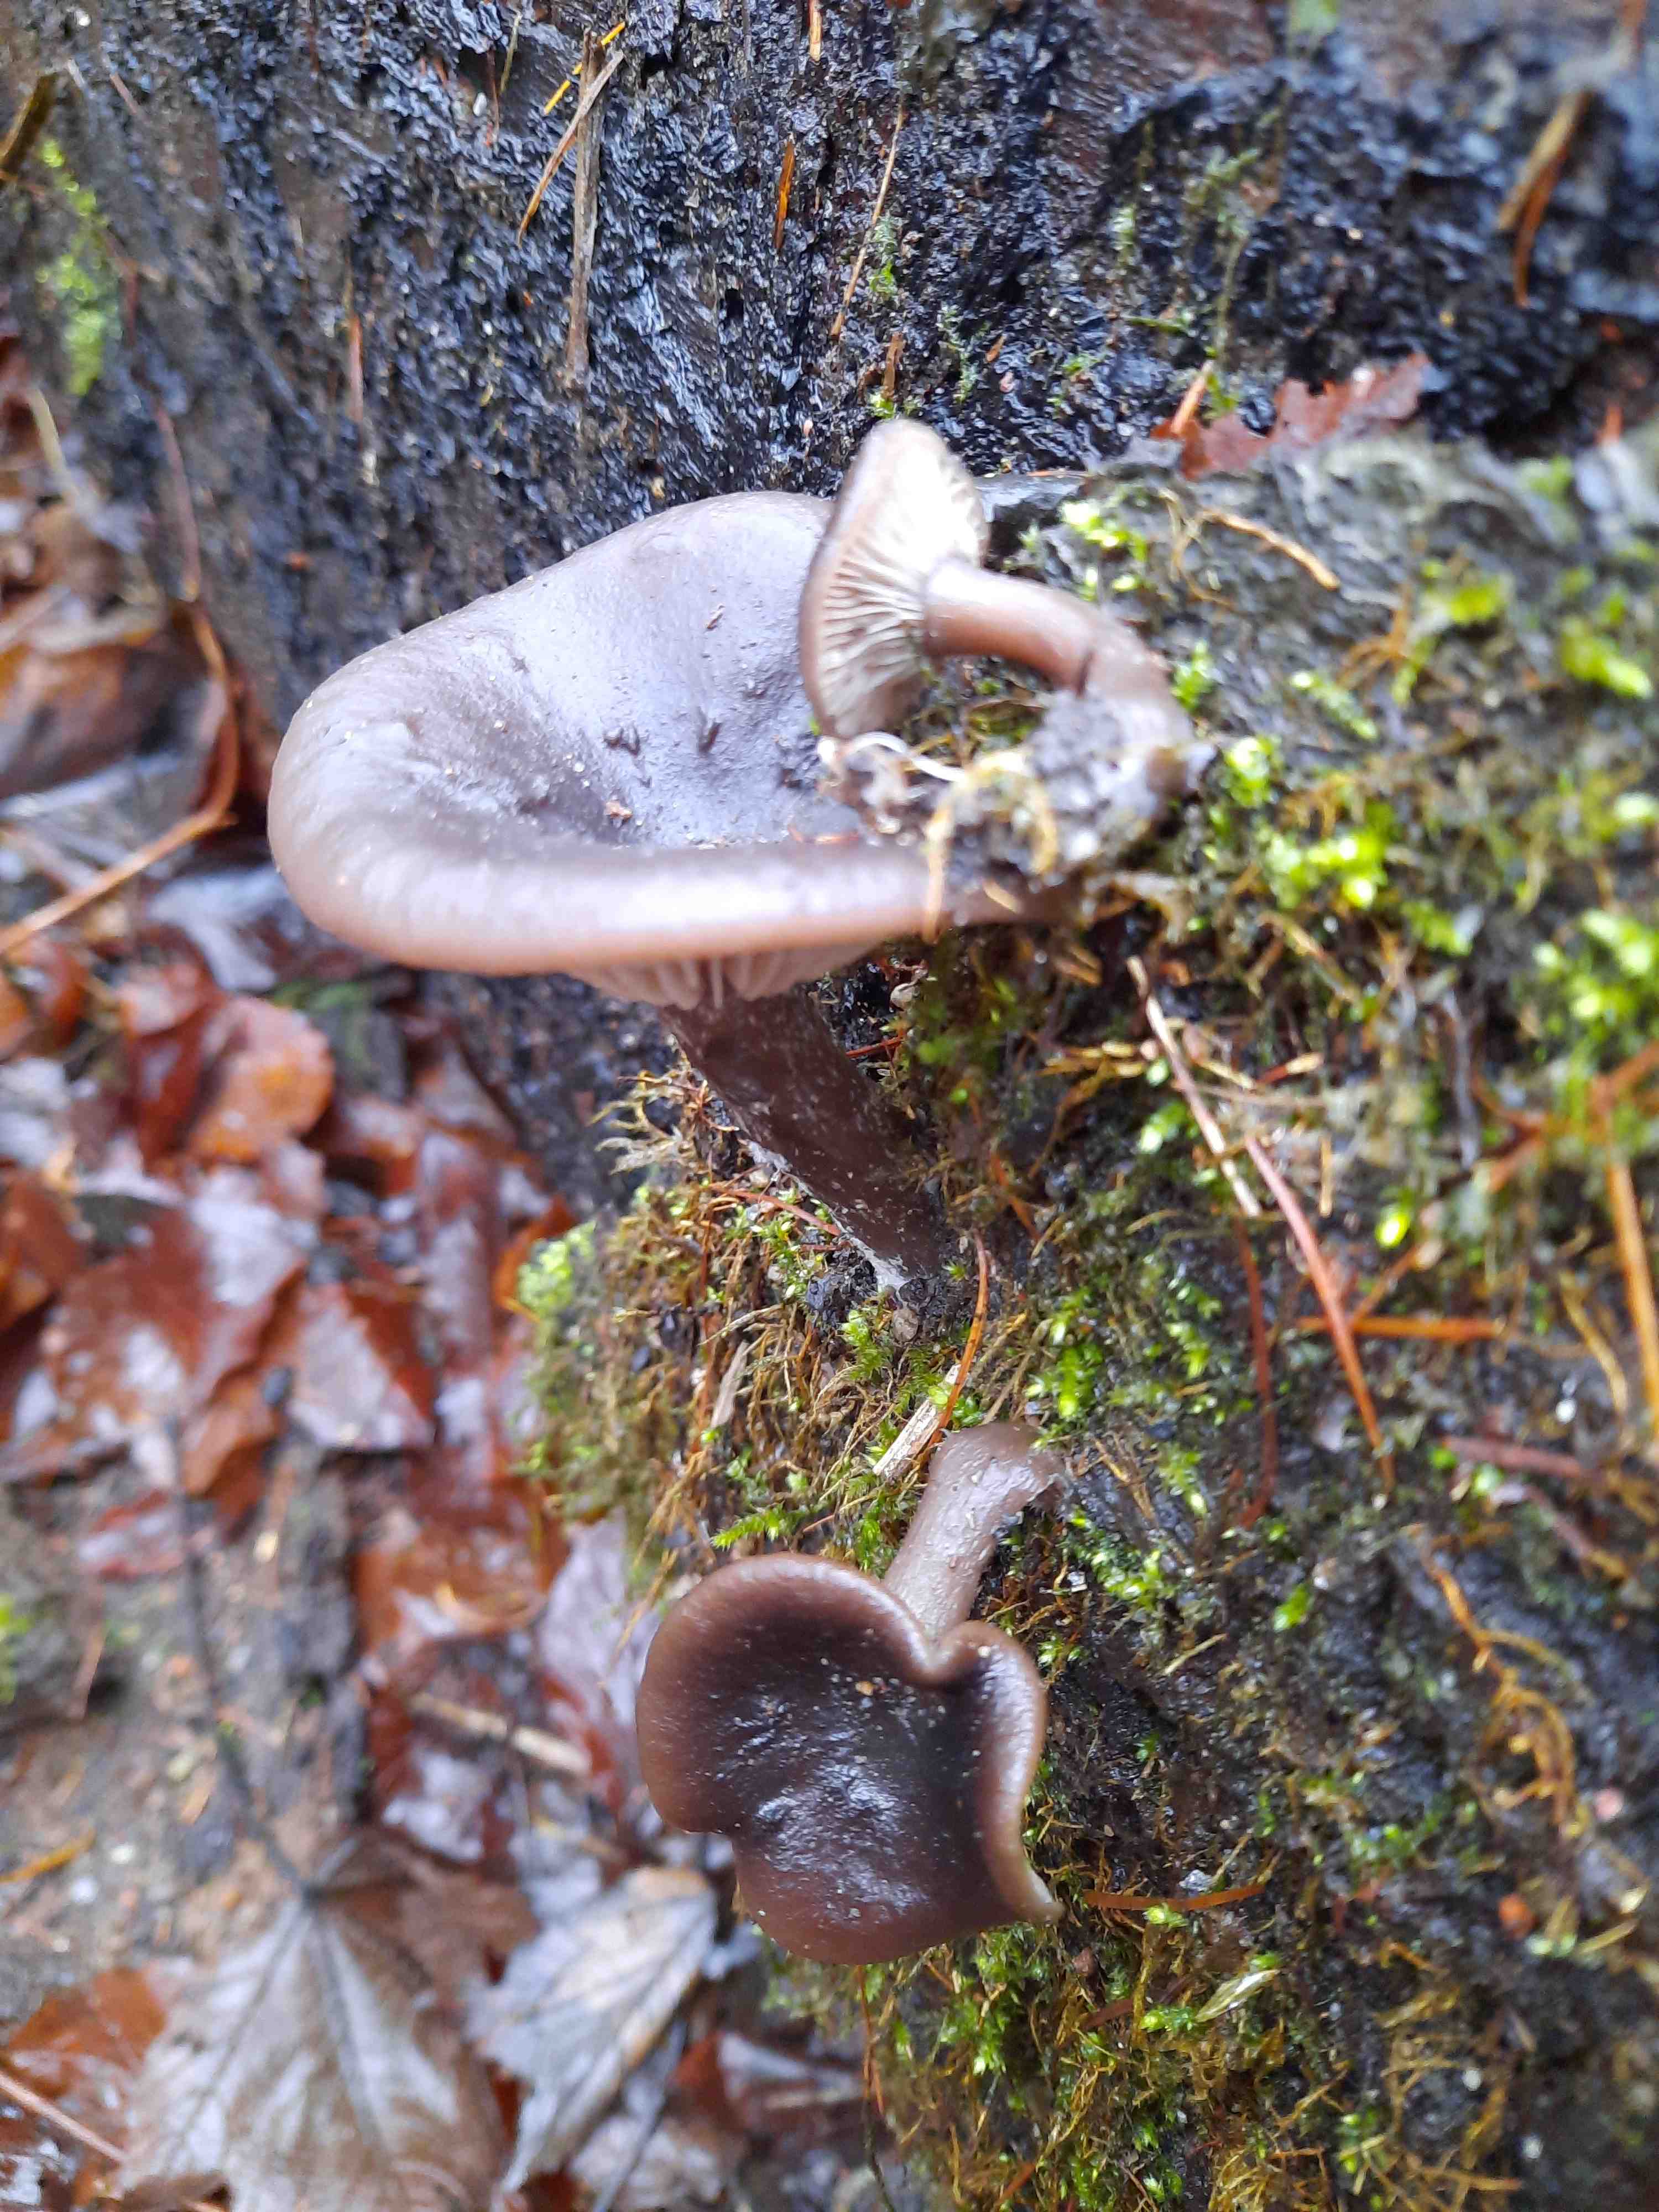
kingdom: Fungi
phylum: Basidiomycota
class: Agaricomycetes
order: Agaricales
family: Pseudoclitocybaceae
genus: Pseudoclitocybe
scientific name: Pseudoclitocybe cyathiformis
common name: almindelig bægertragthat
